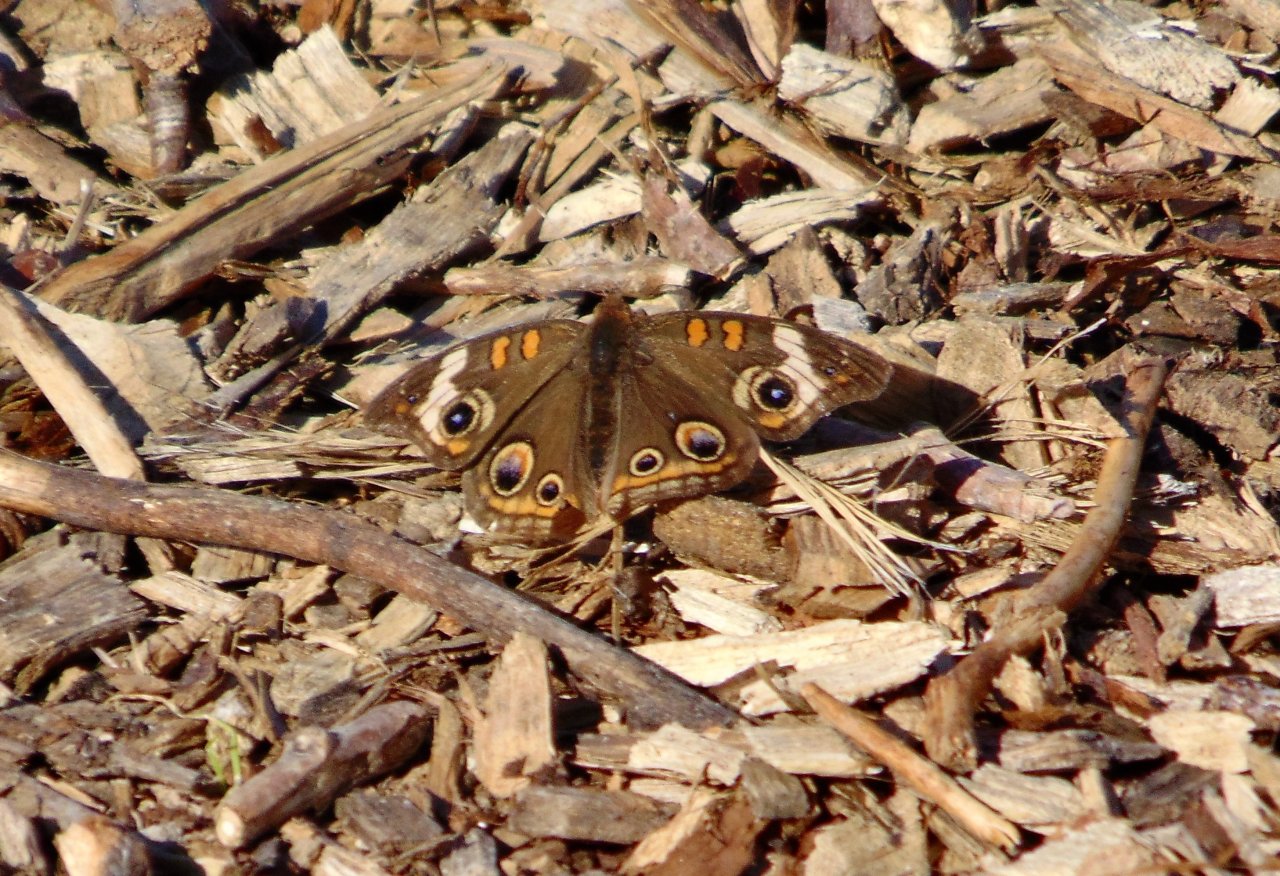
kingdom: Animalia
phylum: Arthropoda
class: Insecta
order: Lepidoptera
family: Nymphalidae
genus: Junonia
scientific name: Junonia coenia
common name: Common Buckeye
